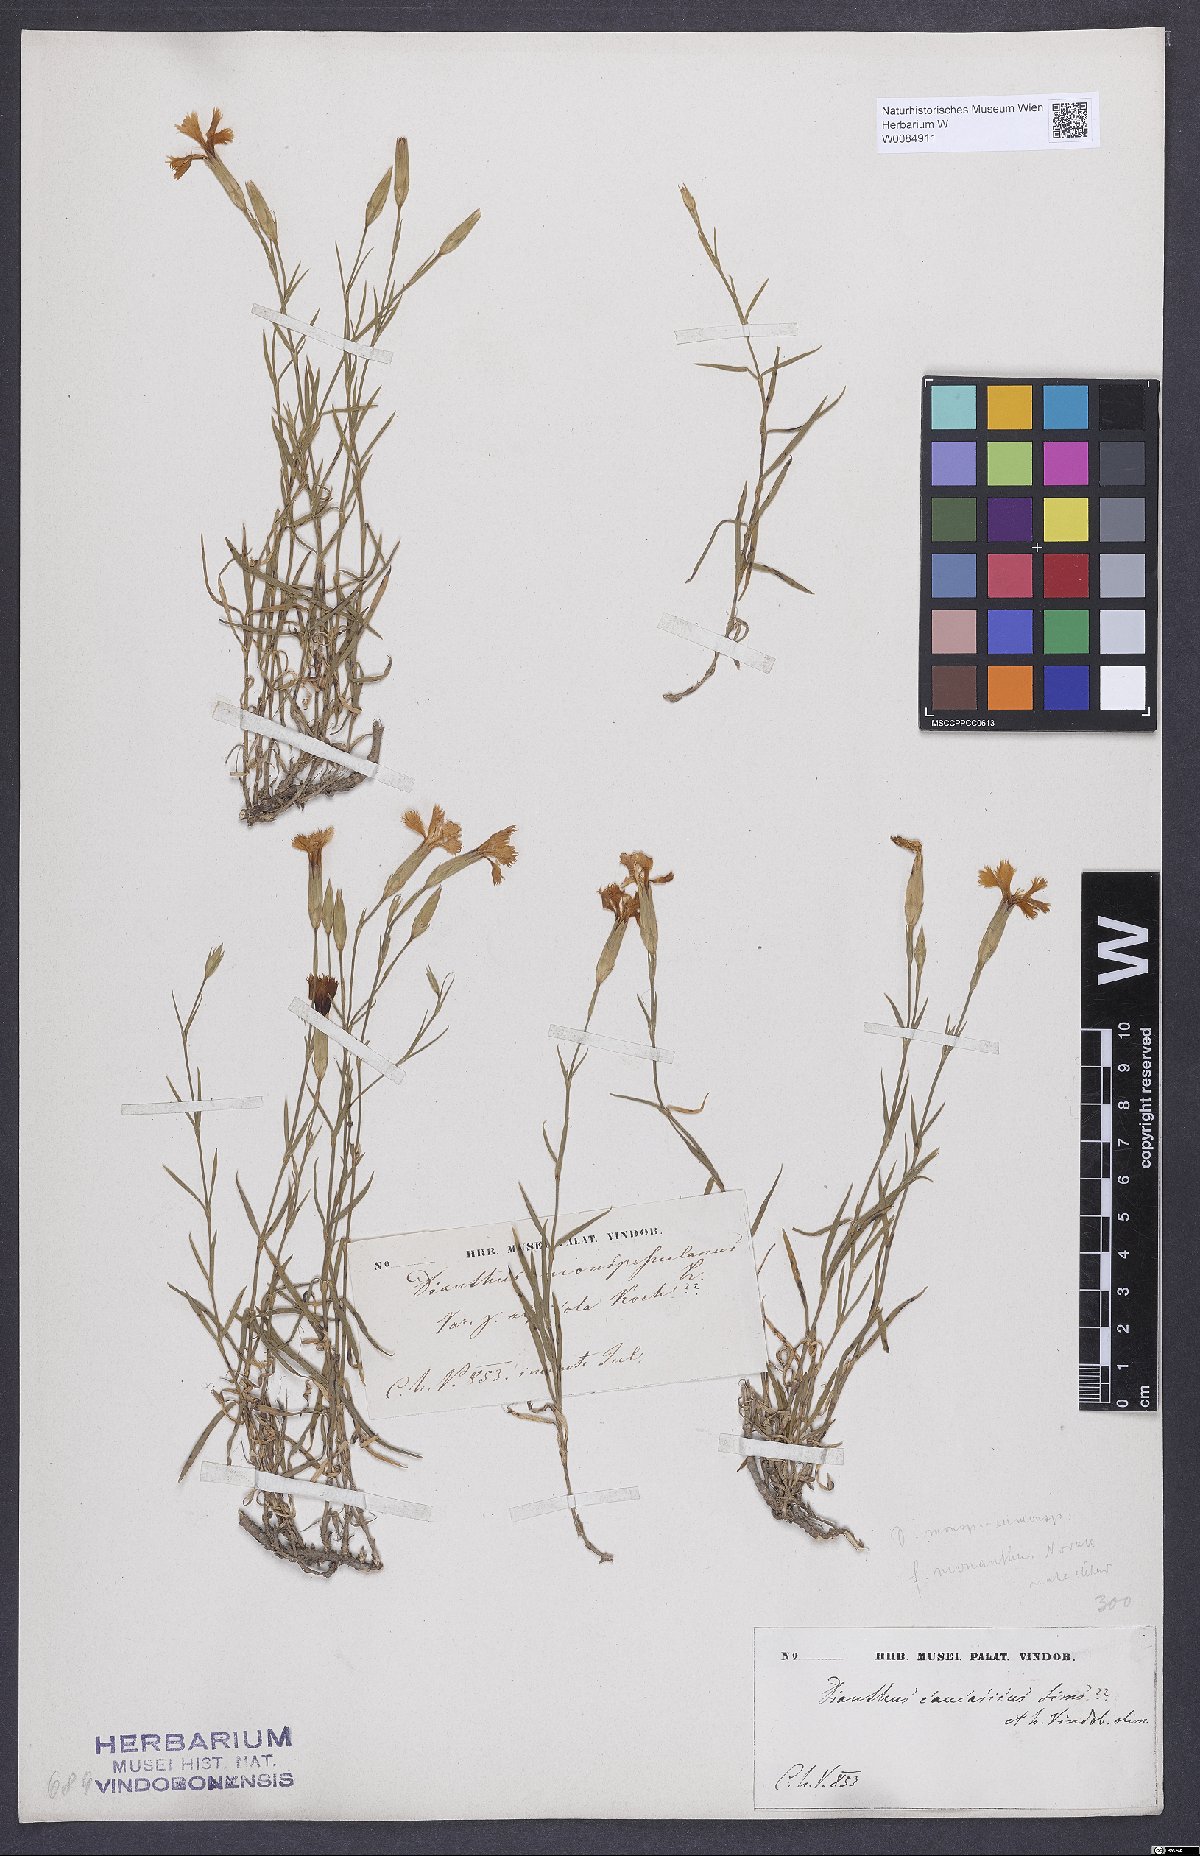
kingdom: Plantae
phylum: Tracheophyta
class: Magnoliopsida
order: Caryophyllales
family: Caryophyllaceae
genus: Dianthus
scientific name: Dianthus hyssopifolius
